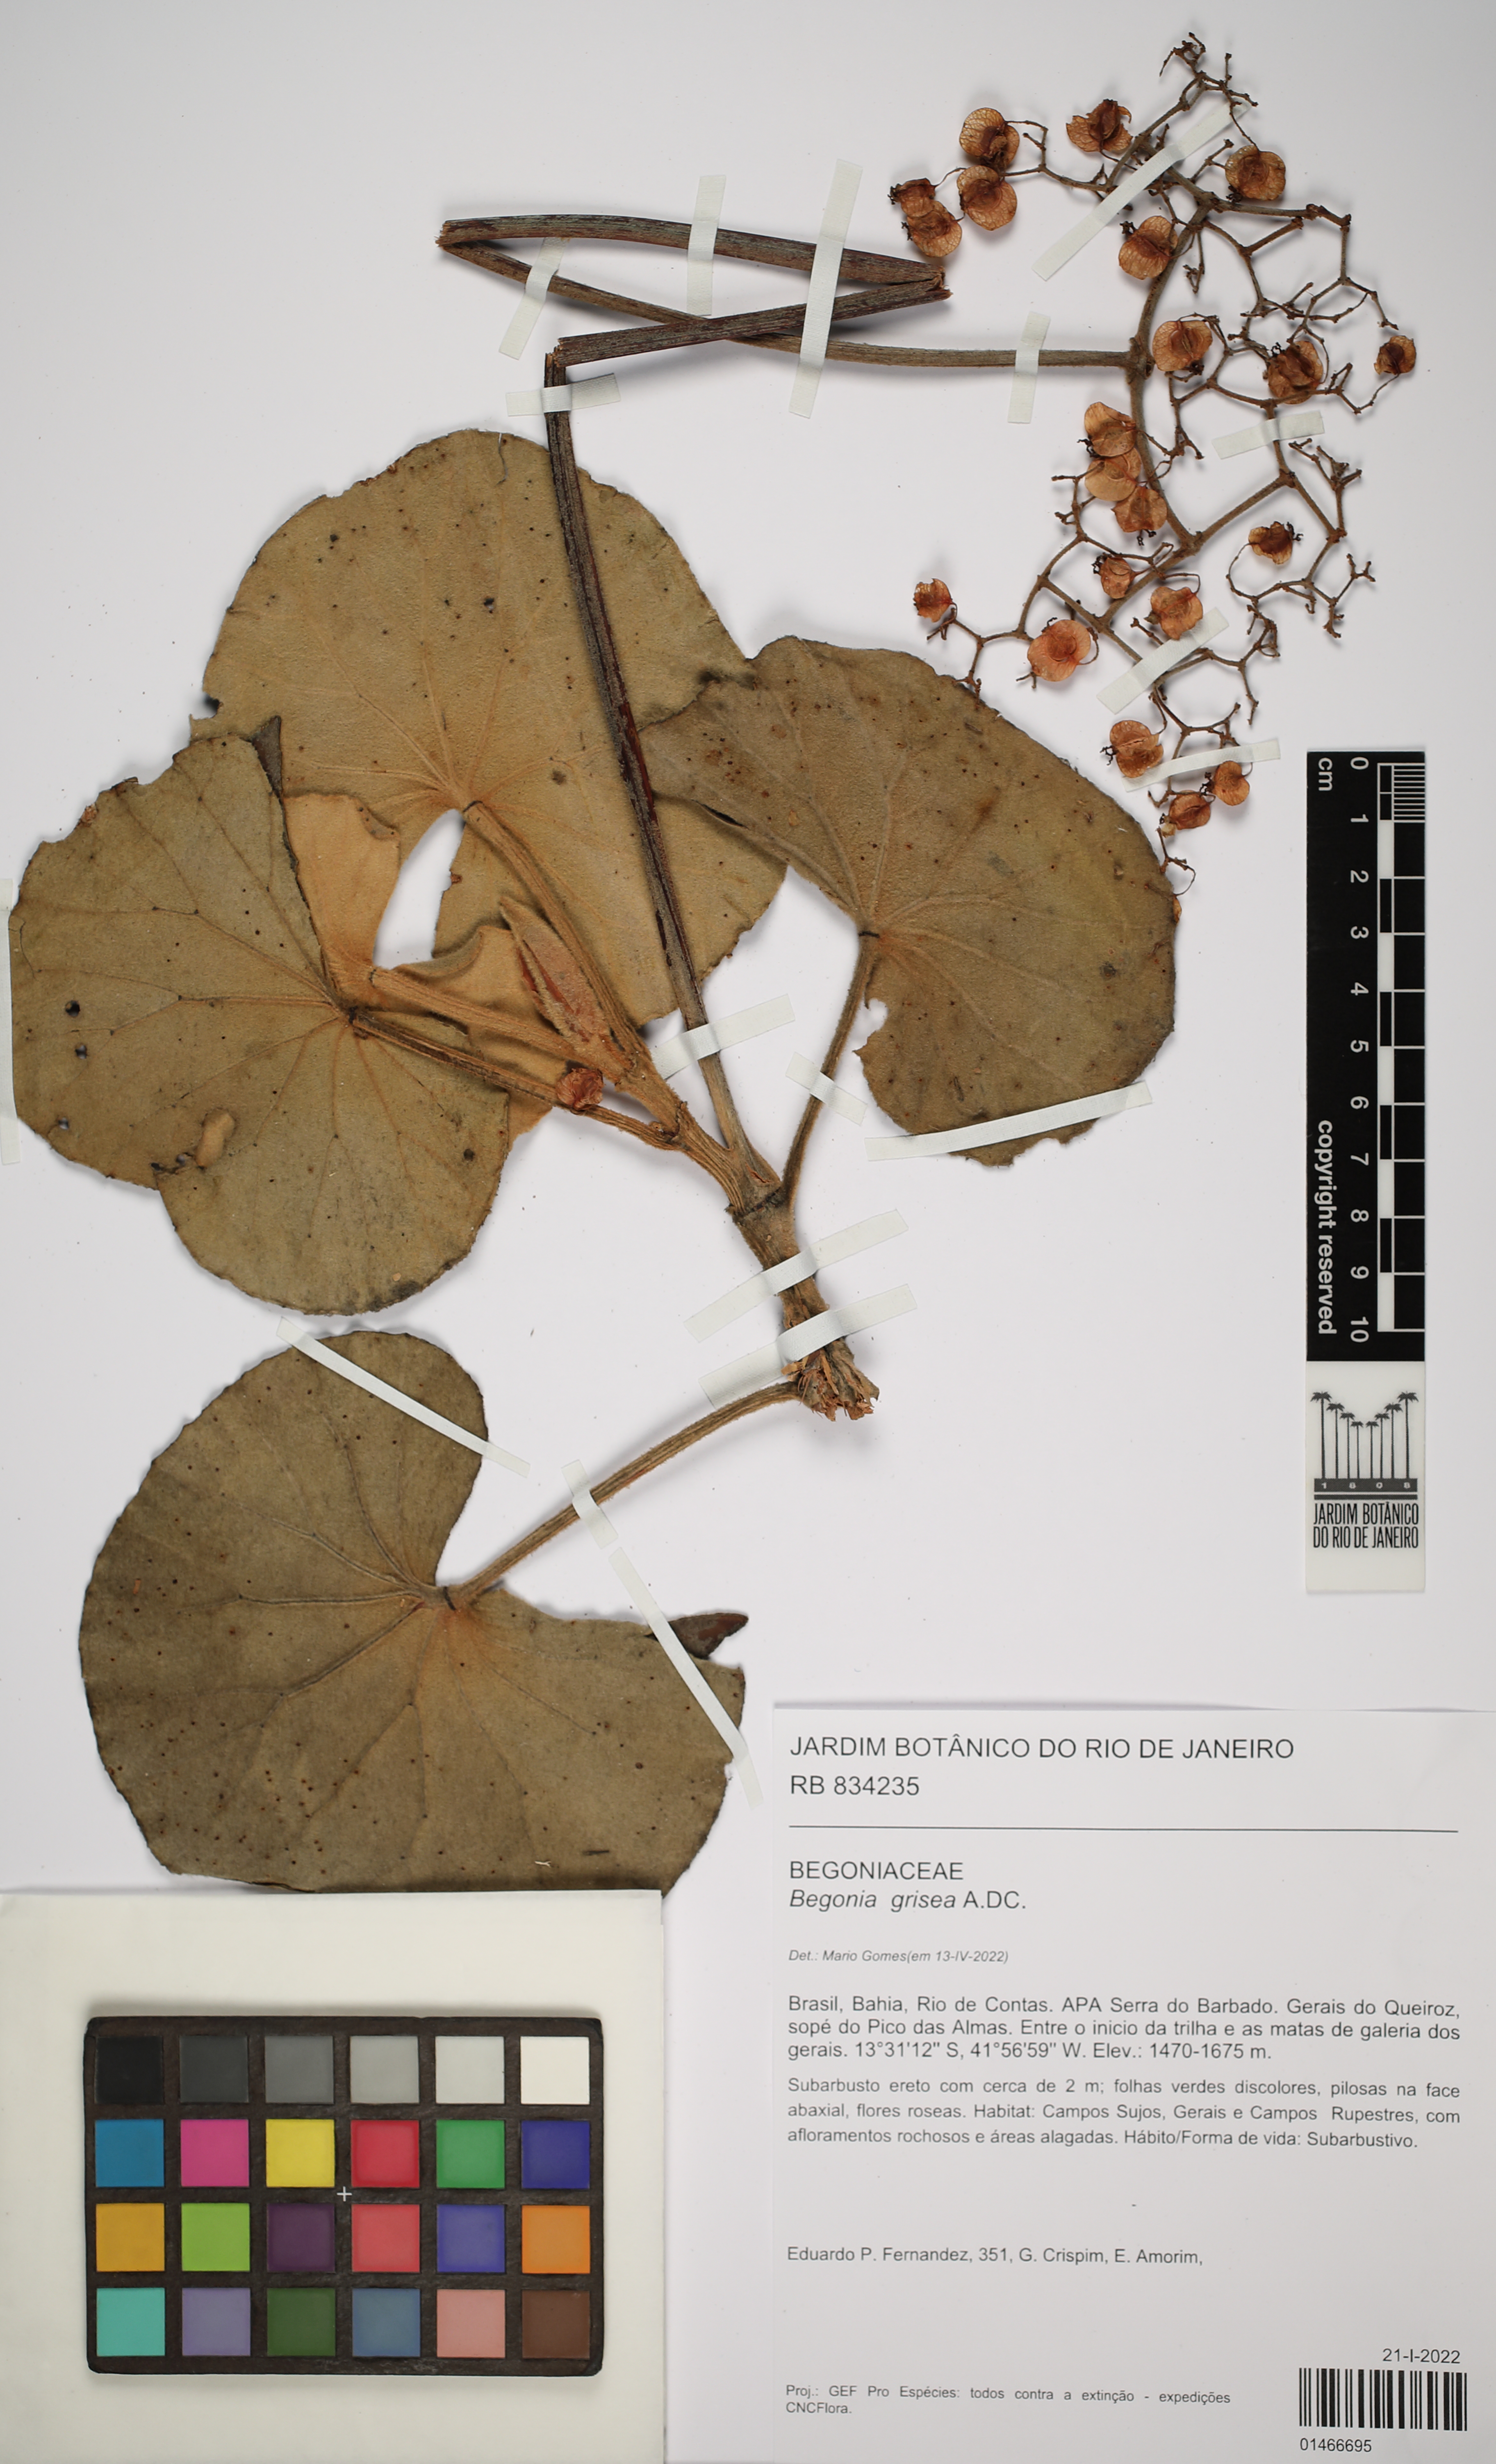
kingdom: Plantae
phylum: Tracheophyta
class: Magnoliopsida
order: Cucurbitales
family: Begoniaceae
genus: Begonia
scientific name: Begonia grisea
